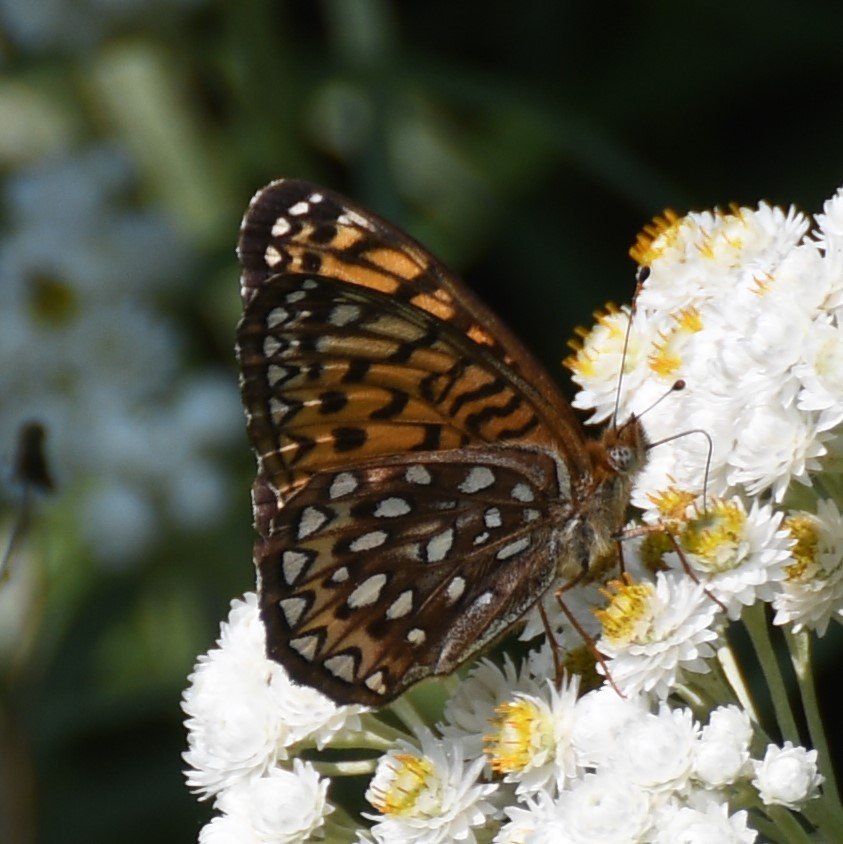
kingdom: Animalia
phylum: Arthropoda
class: Insecta
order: Lepidoptera
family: Nymphalidae
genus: Speyeria
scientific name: Speyeria atlantis
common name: Atlantis Fritillary
